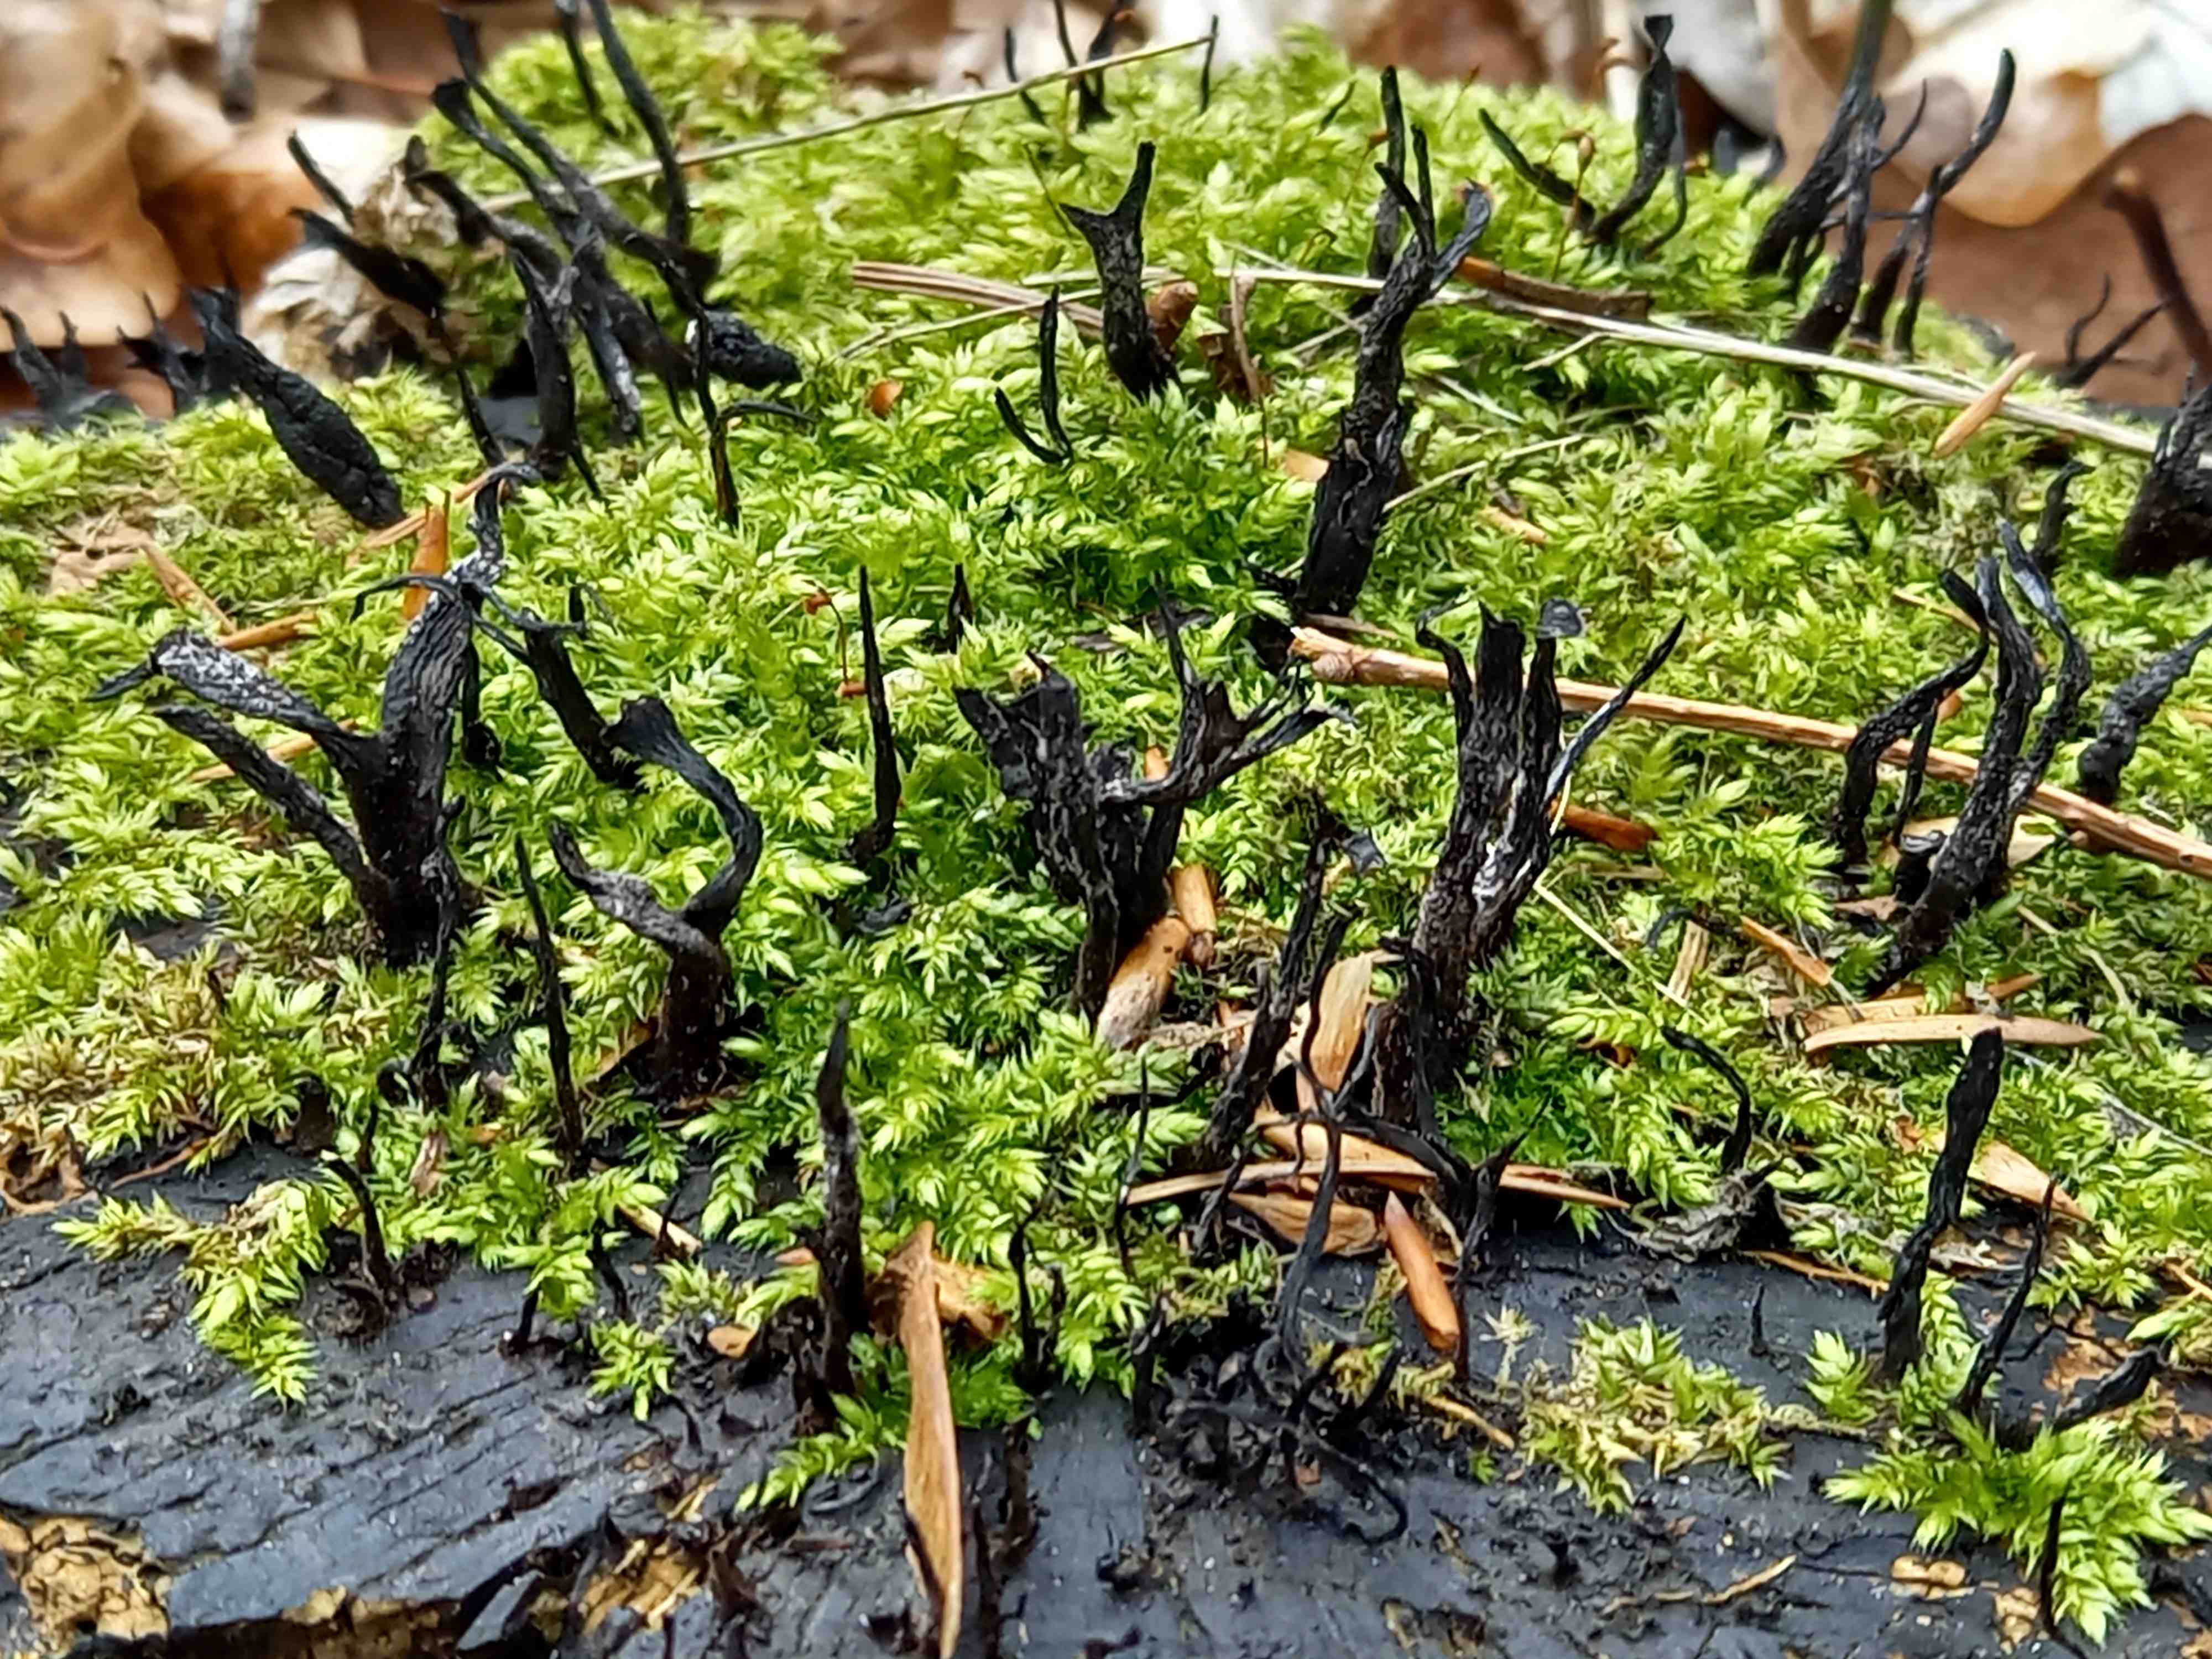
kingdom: Fungi
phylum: Ascomycota
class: Sordariomycetes
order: Xylariales
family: Xylariaceae
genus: Xylaria
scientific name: Xylaria hypoxylon
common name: grenet stødsvamp
